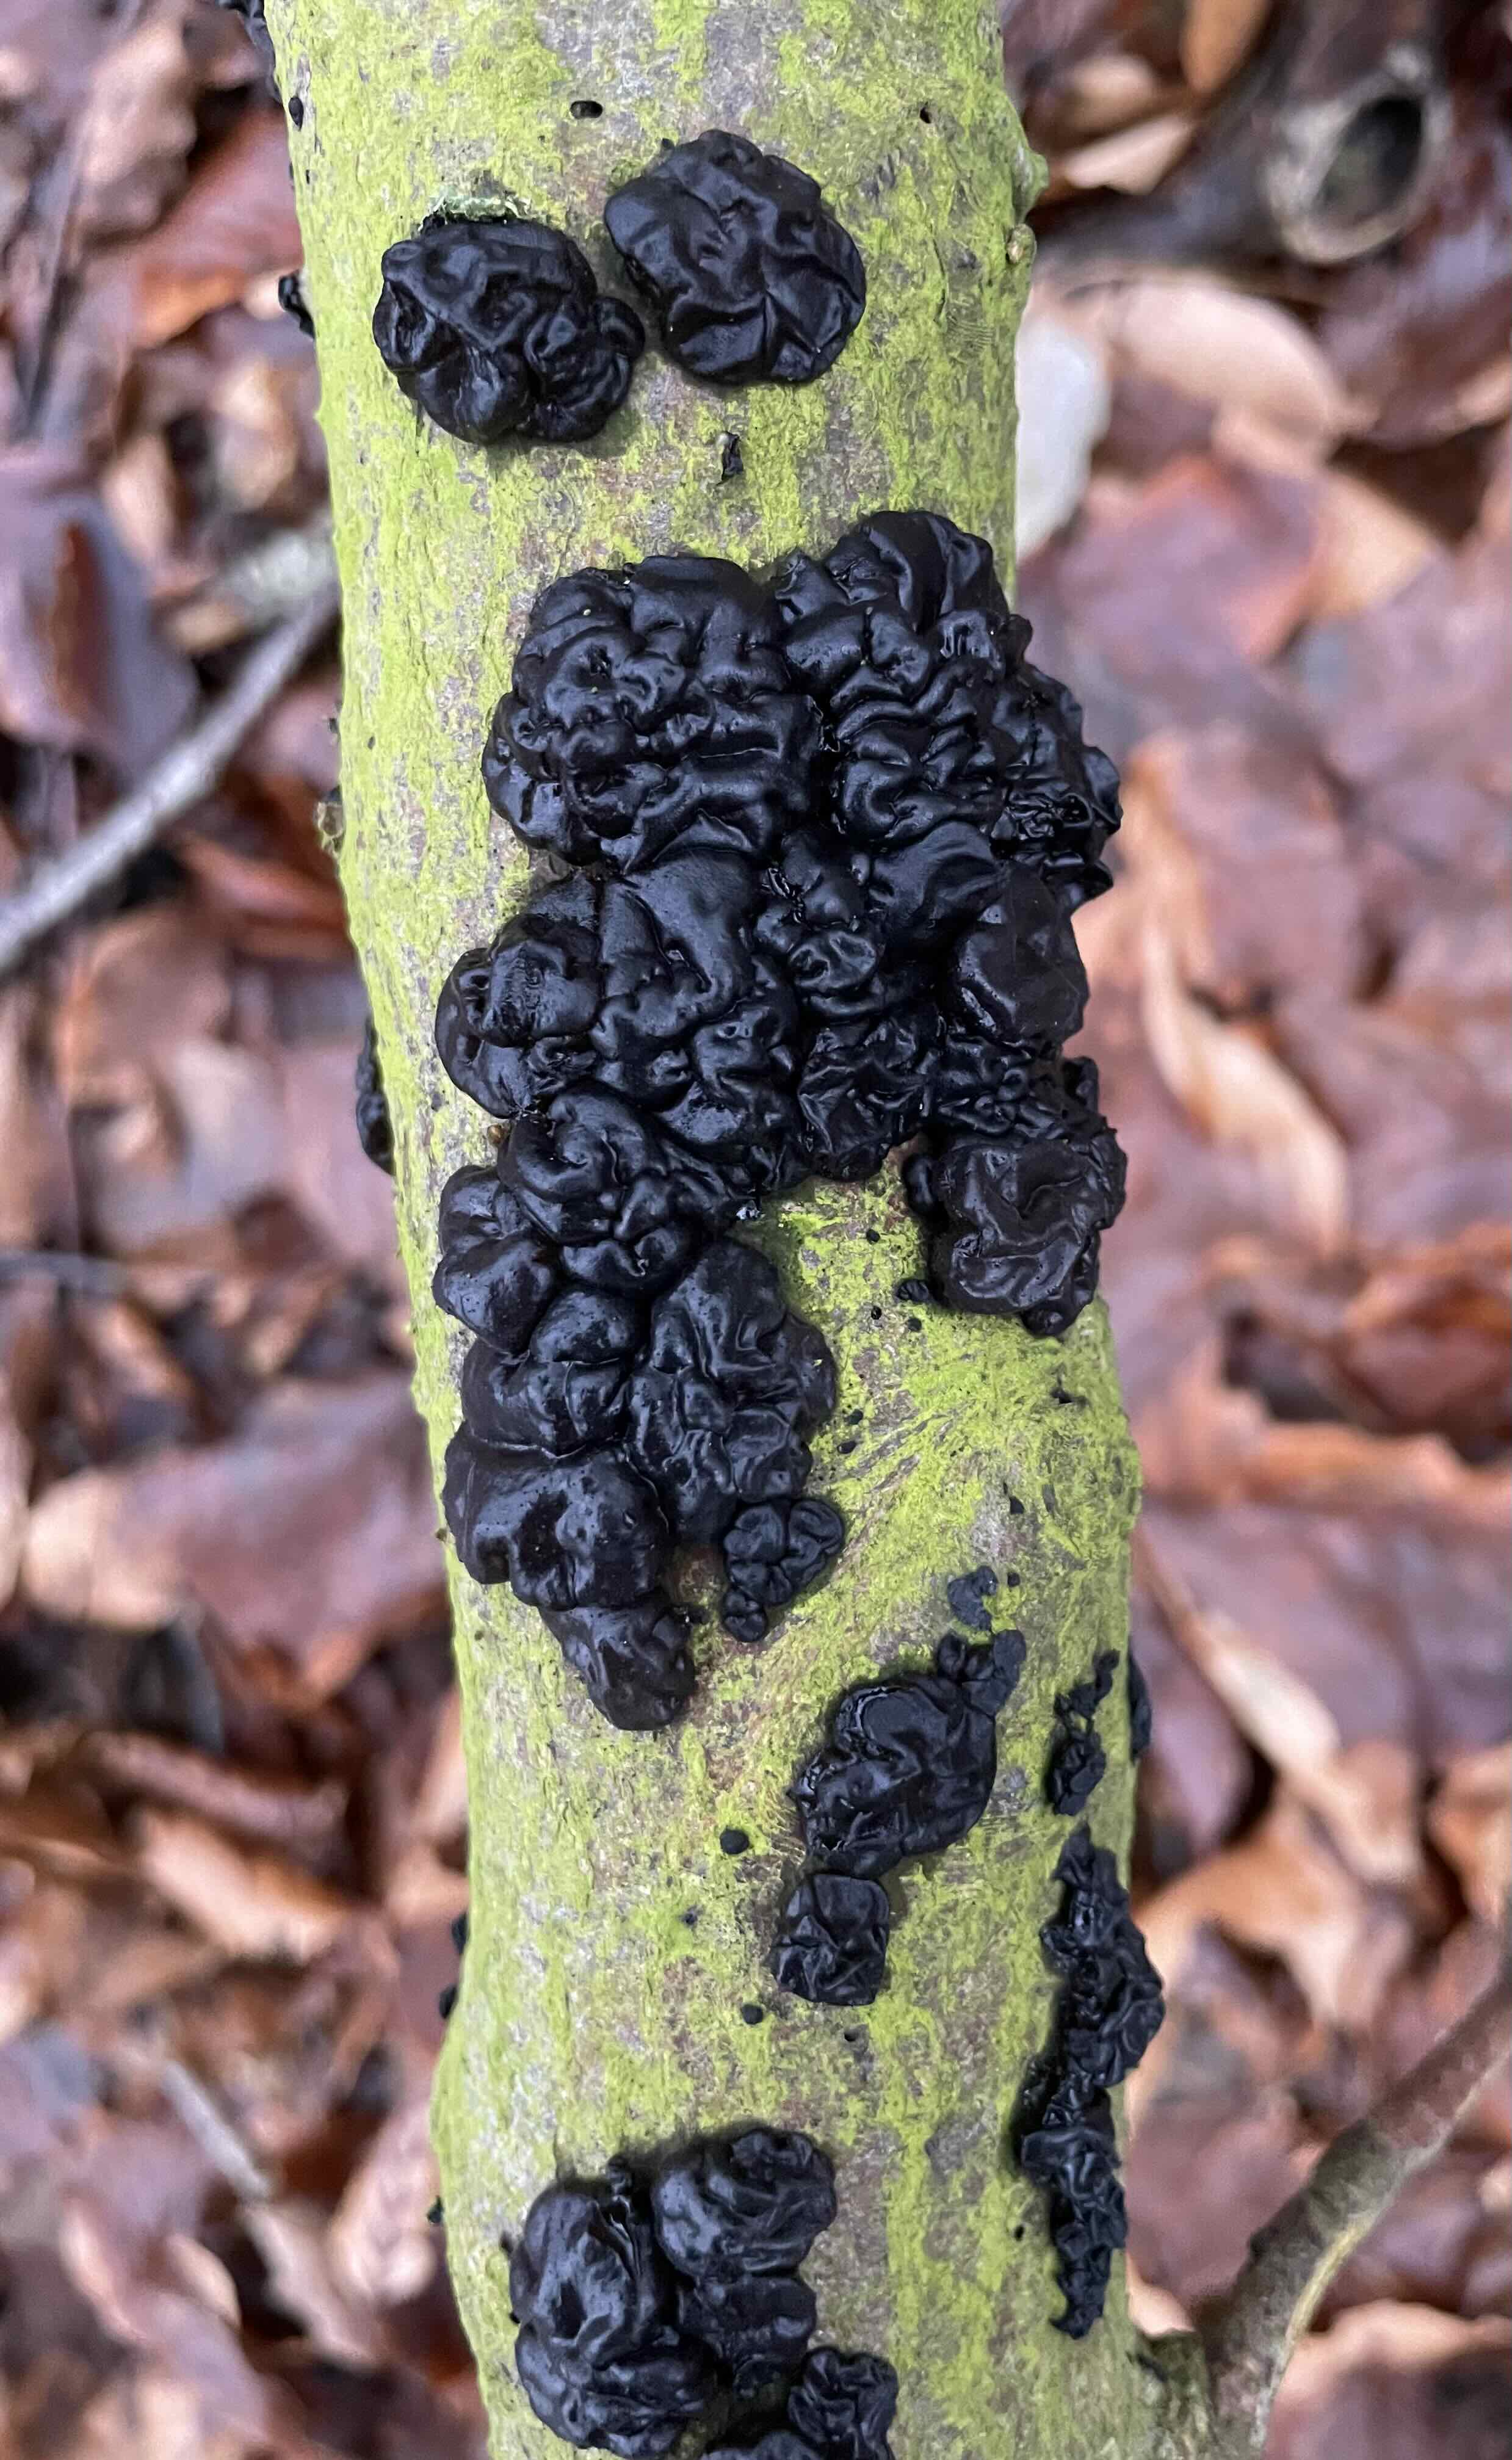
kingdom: Fungi
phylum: Basidiomycota
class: Agaricomycetes
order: Auriculariales
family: Auriculariaceae
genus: Exidia
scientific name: Exidia nigricans
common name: almindelig bævretop
